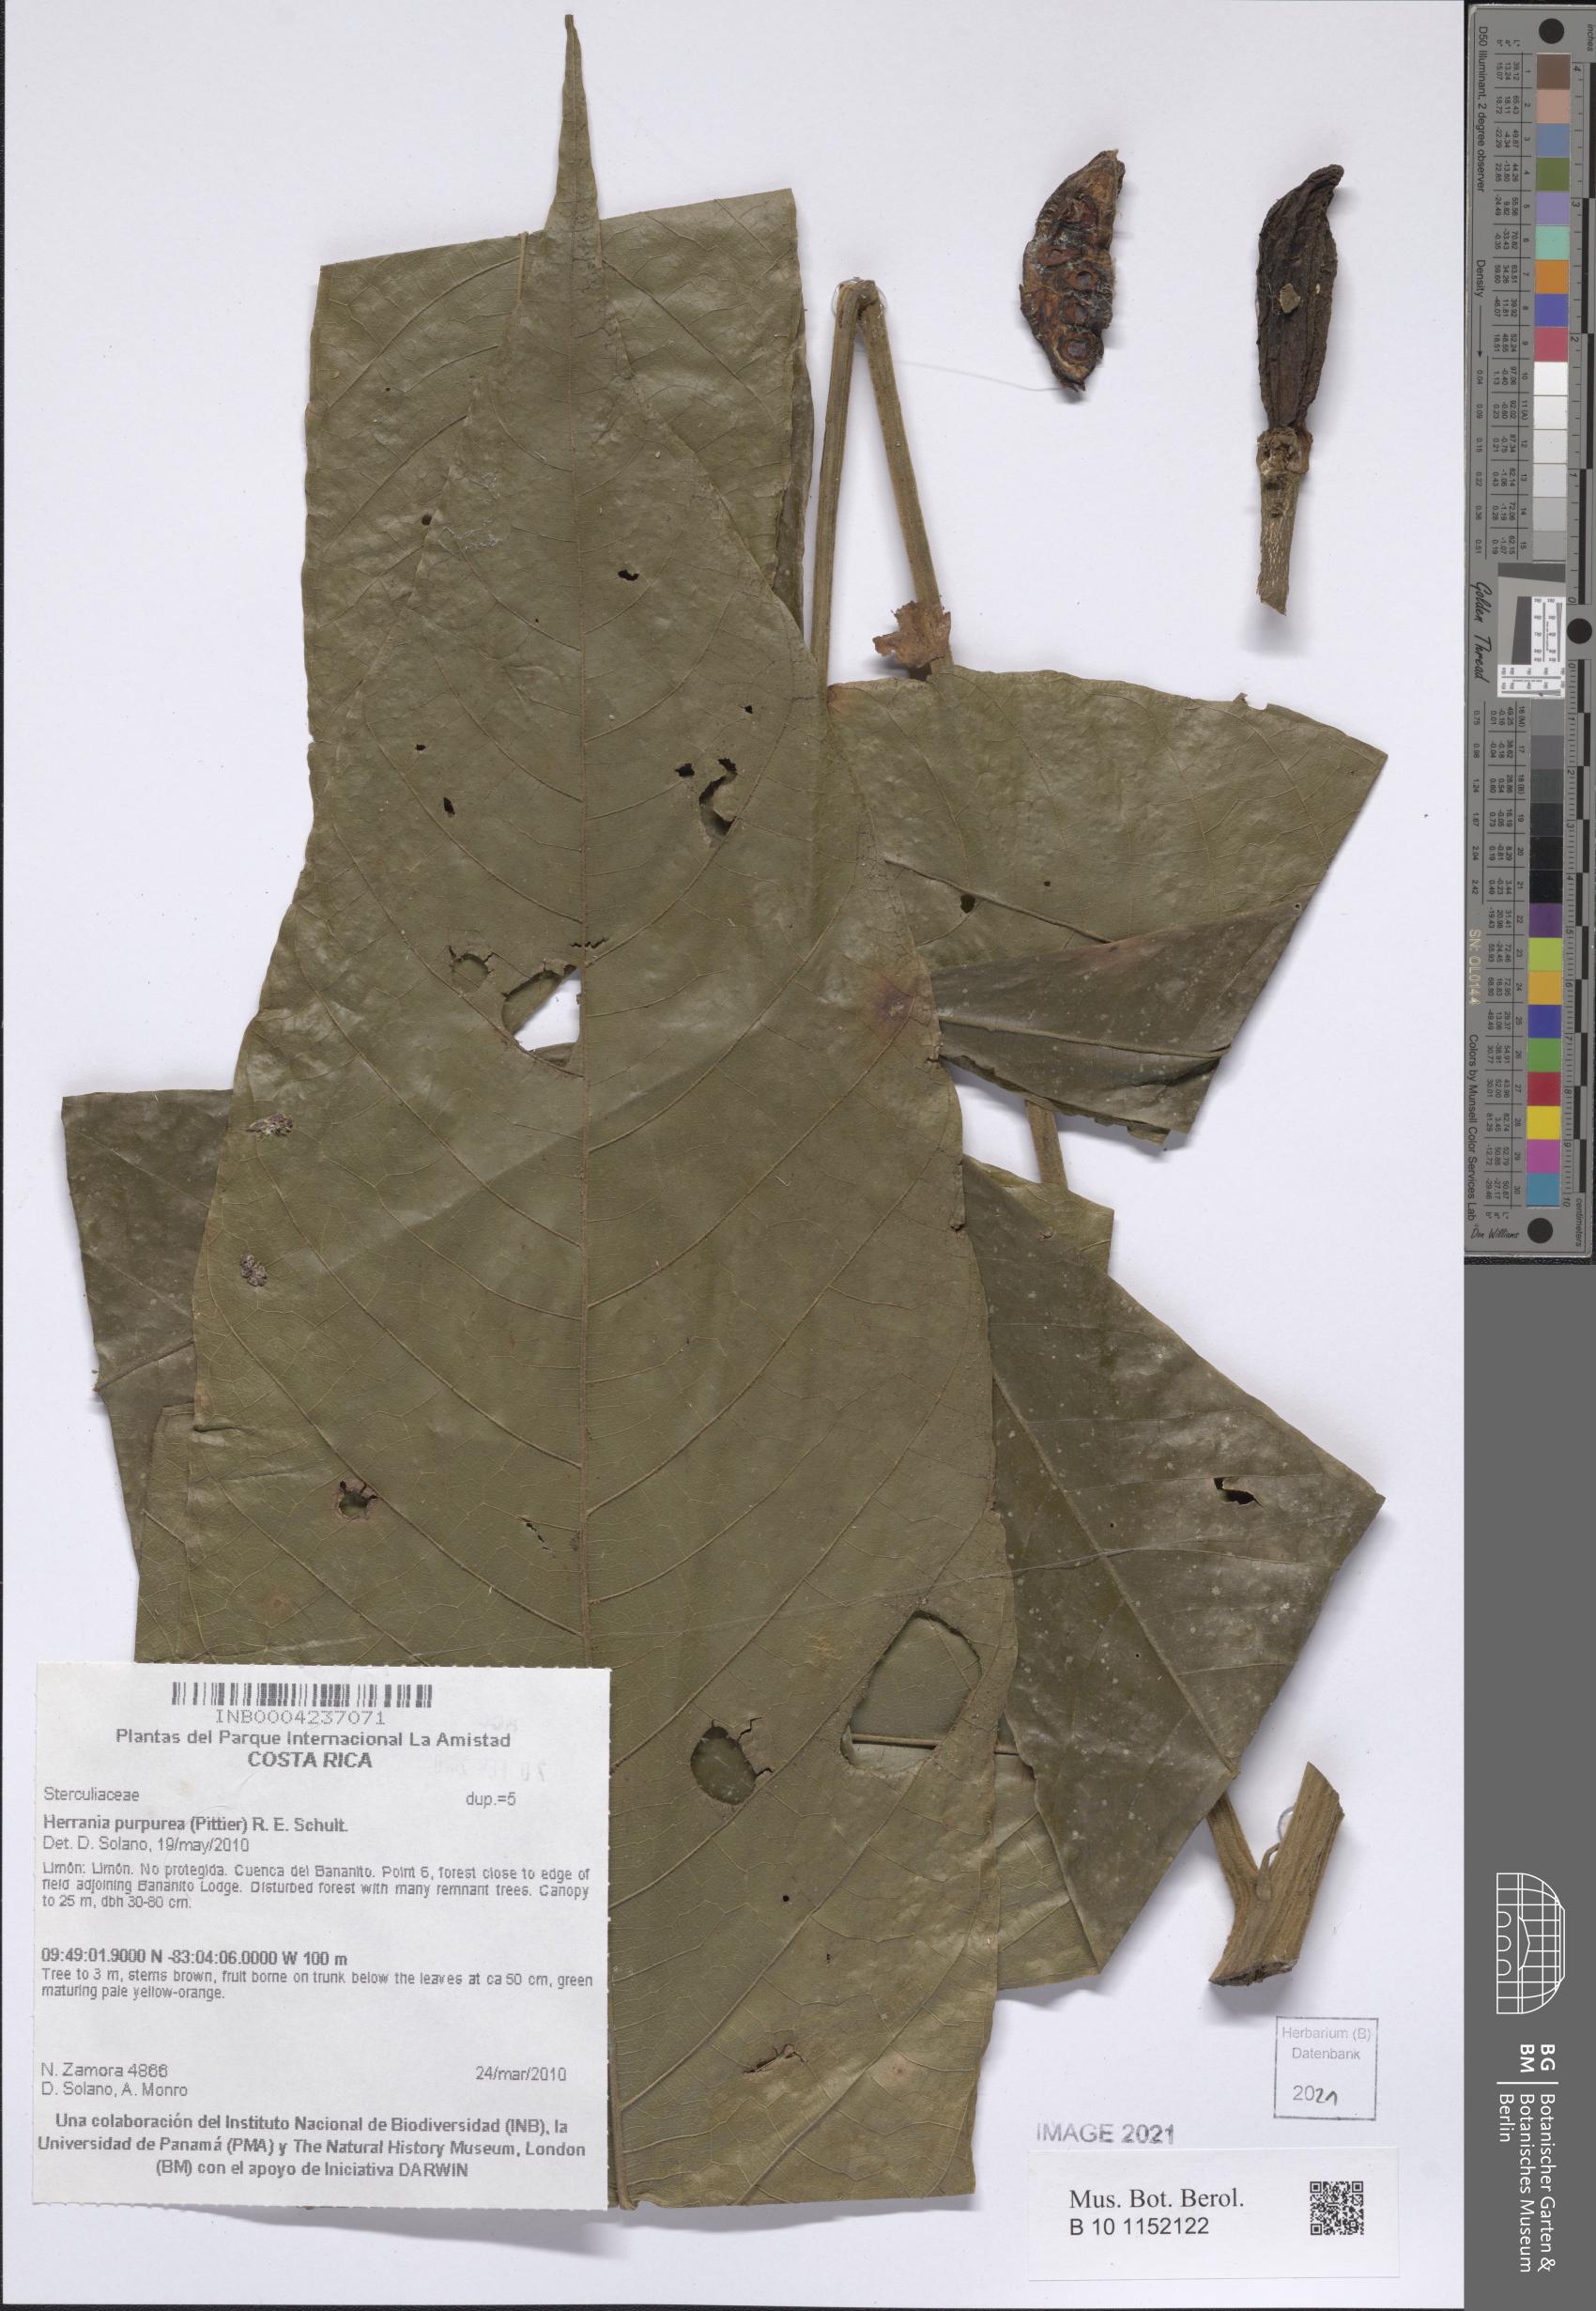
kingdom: Plantae
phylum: Tracheophyta
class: Magnoliopsida
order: Malvales
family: Malvaceae
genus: Herrania
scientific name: Herrania purpurea
